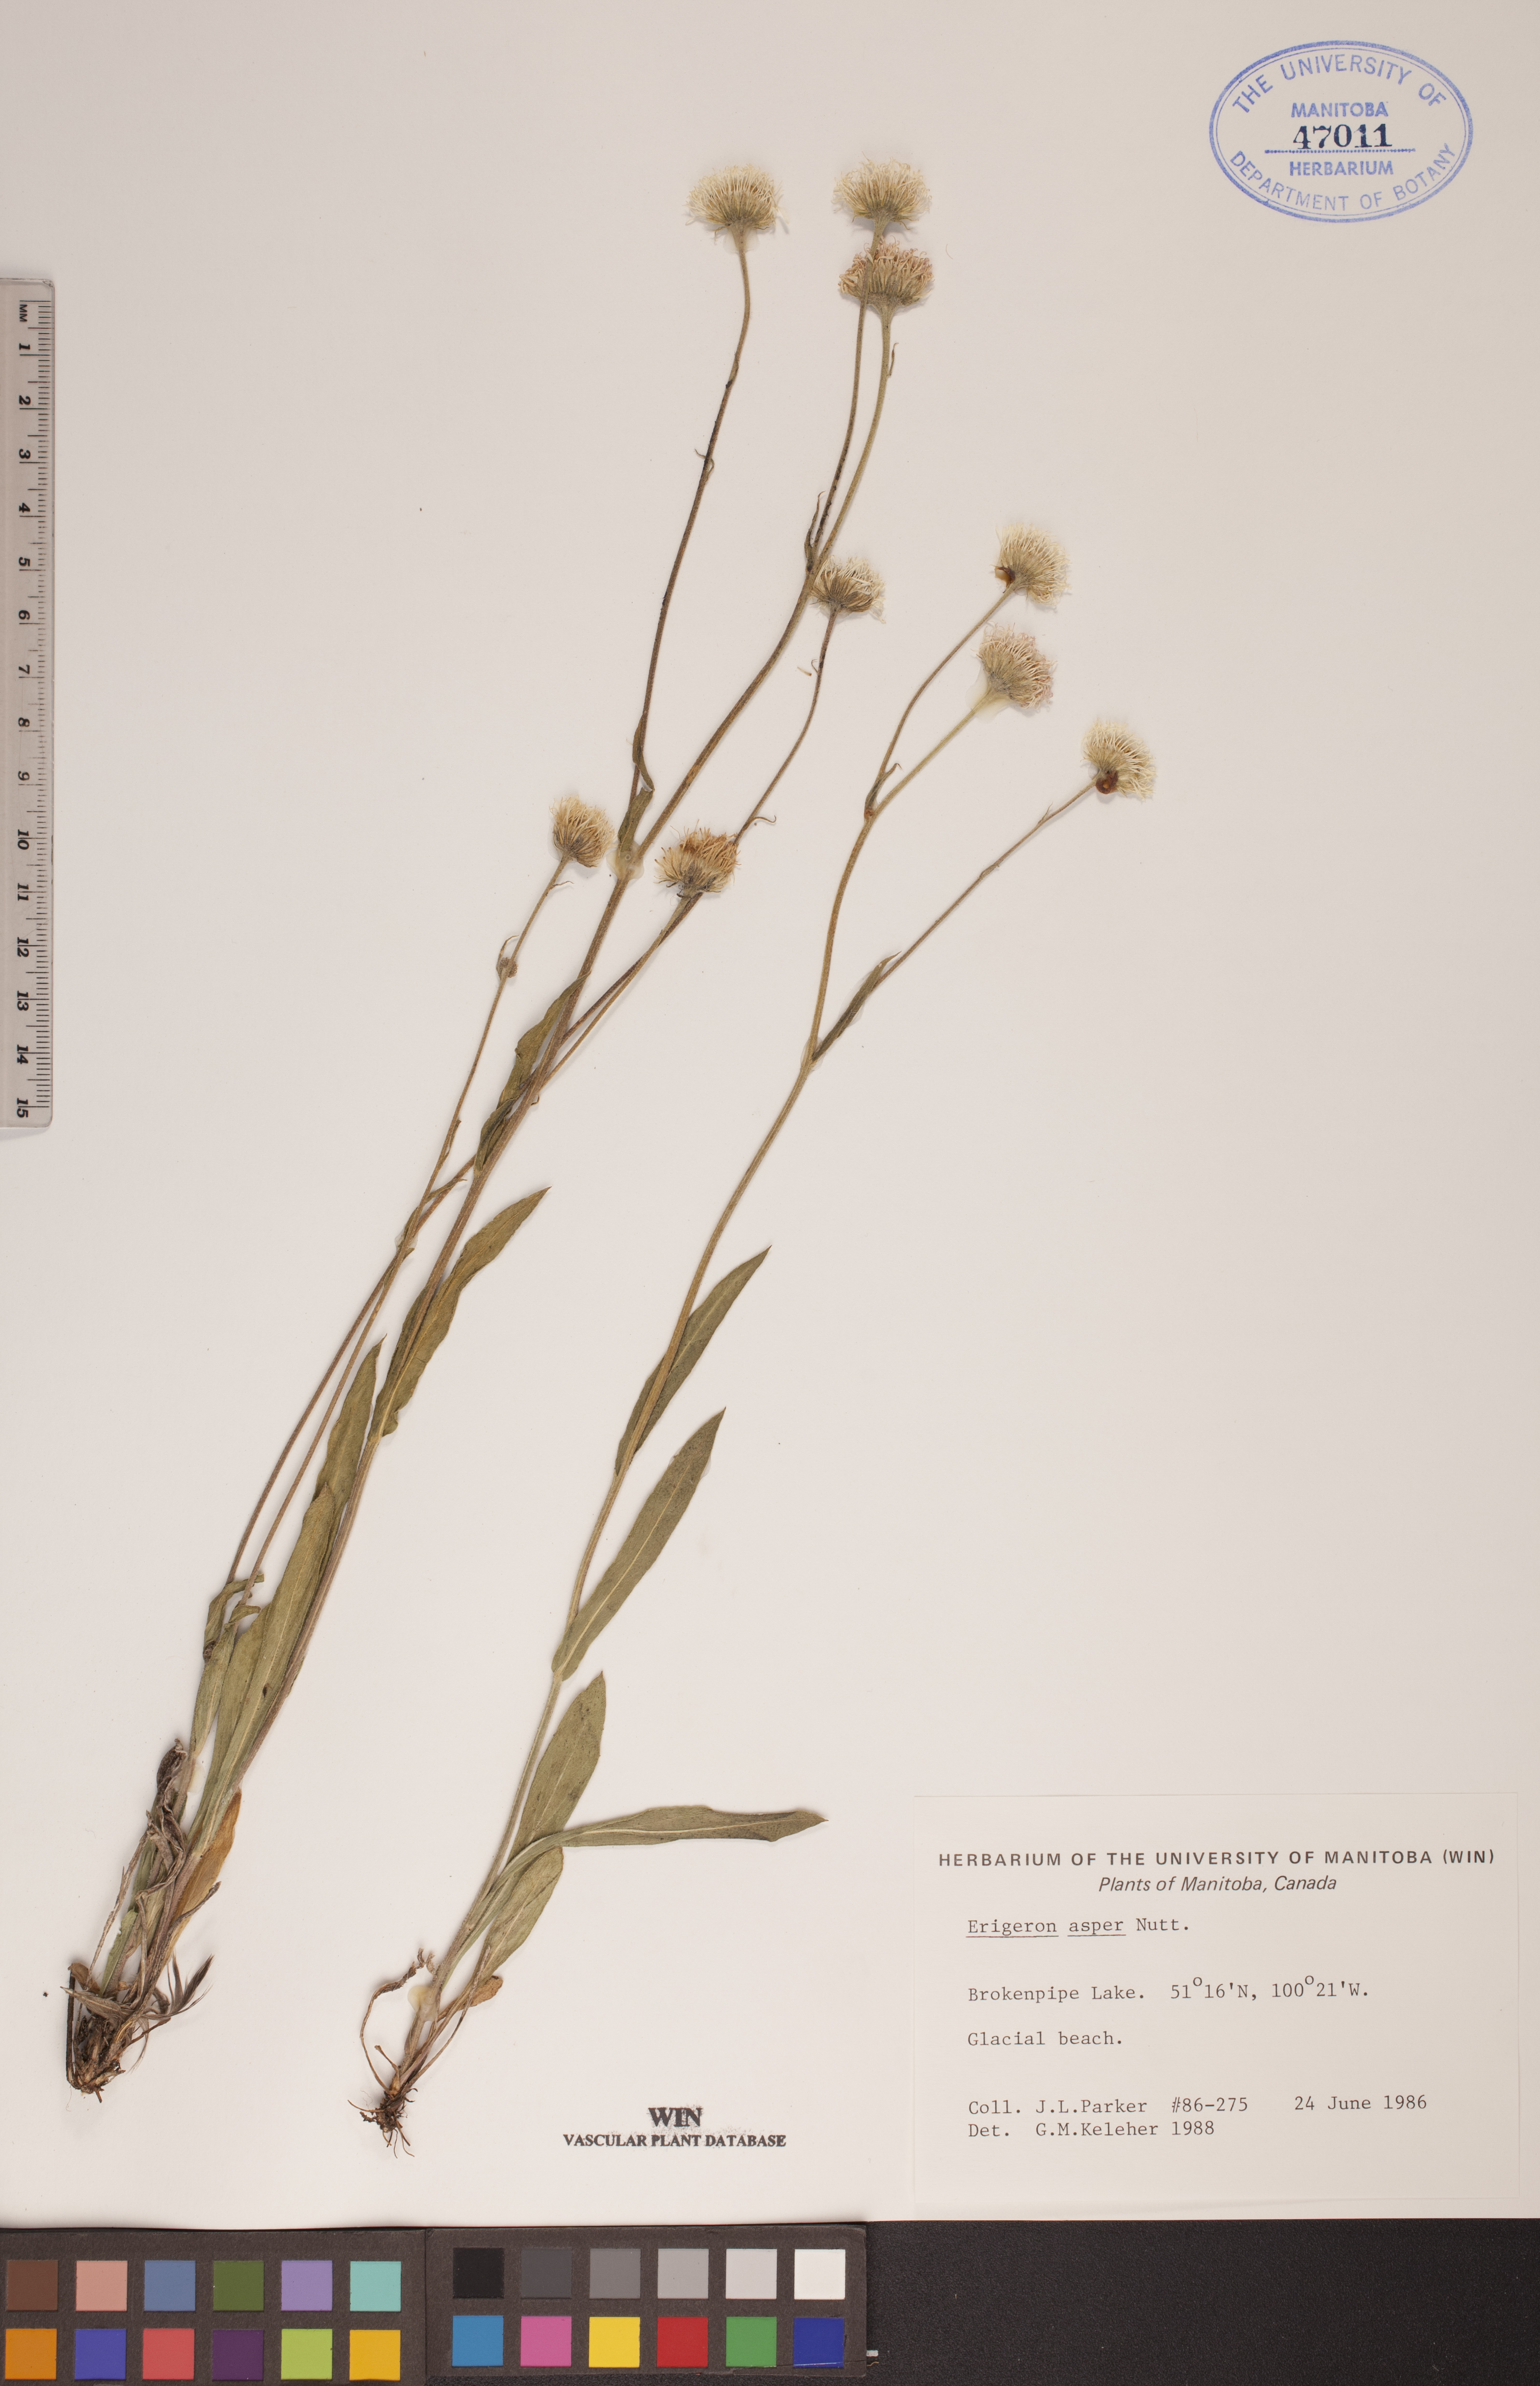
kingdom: Plantae
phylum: Tracheophyta
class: Magnoliopsida
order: Asterales
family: Asteraceae
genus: Erigeron
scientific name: Erigeron glabellus
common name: Smooth fleabane
